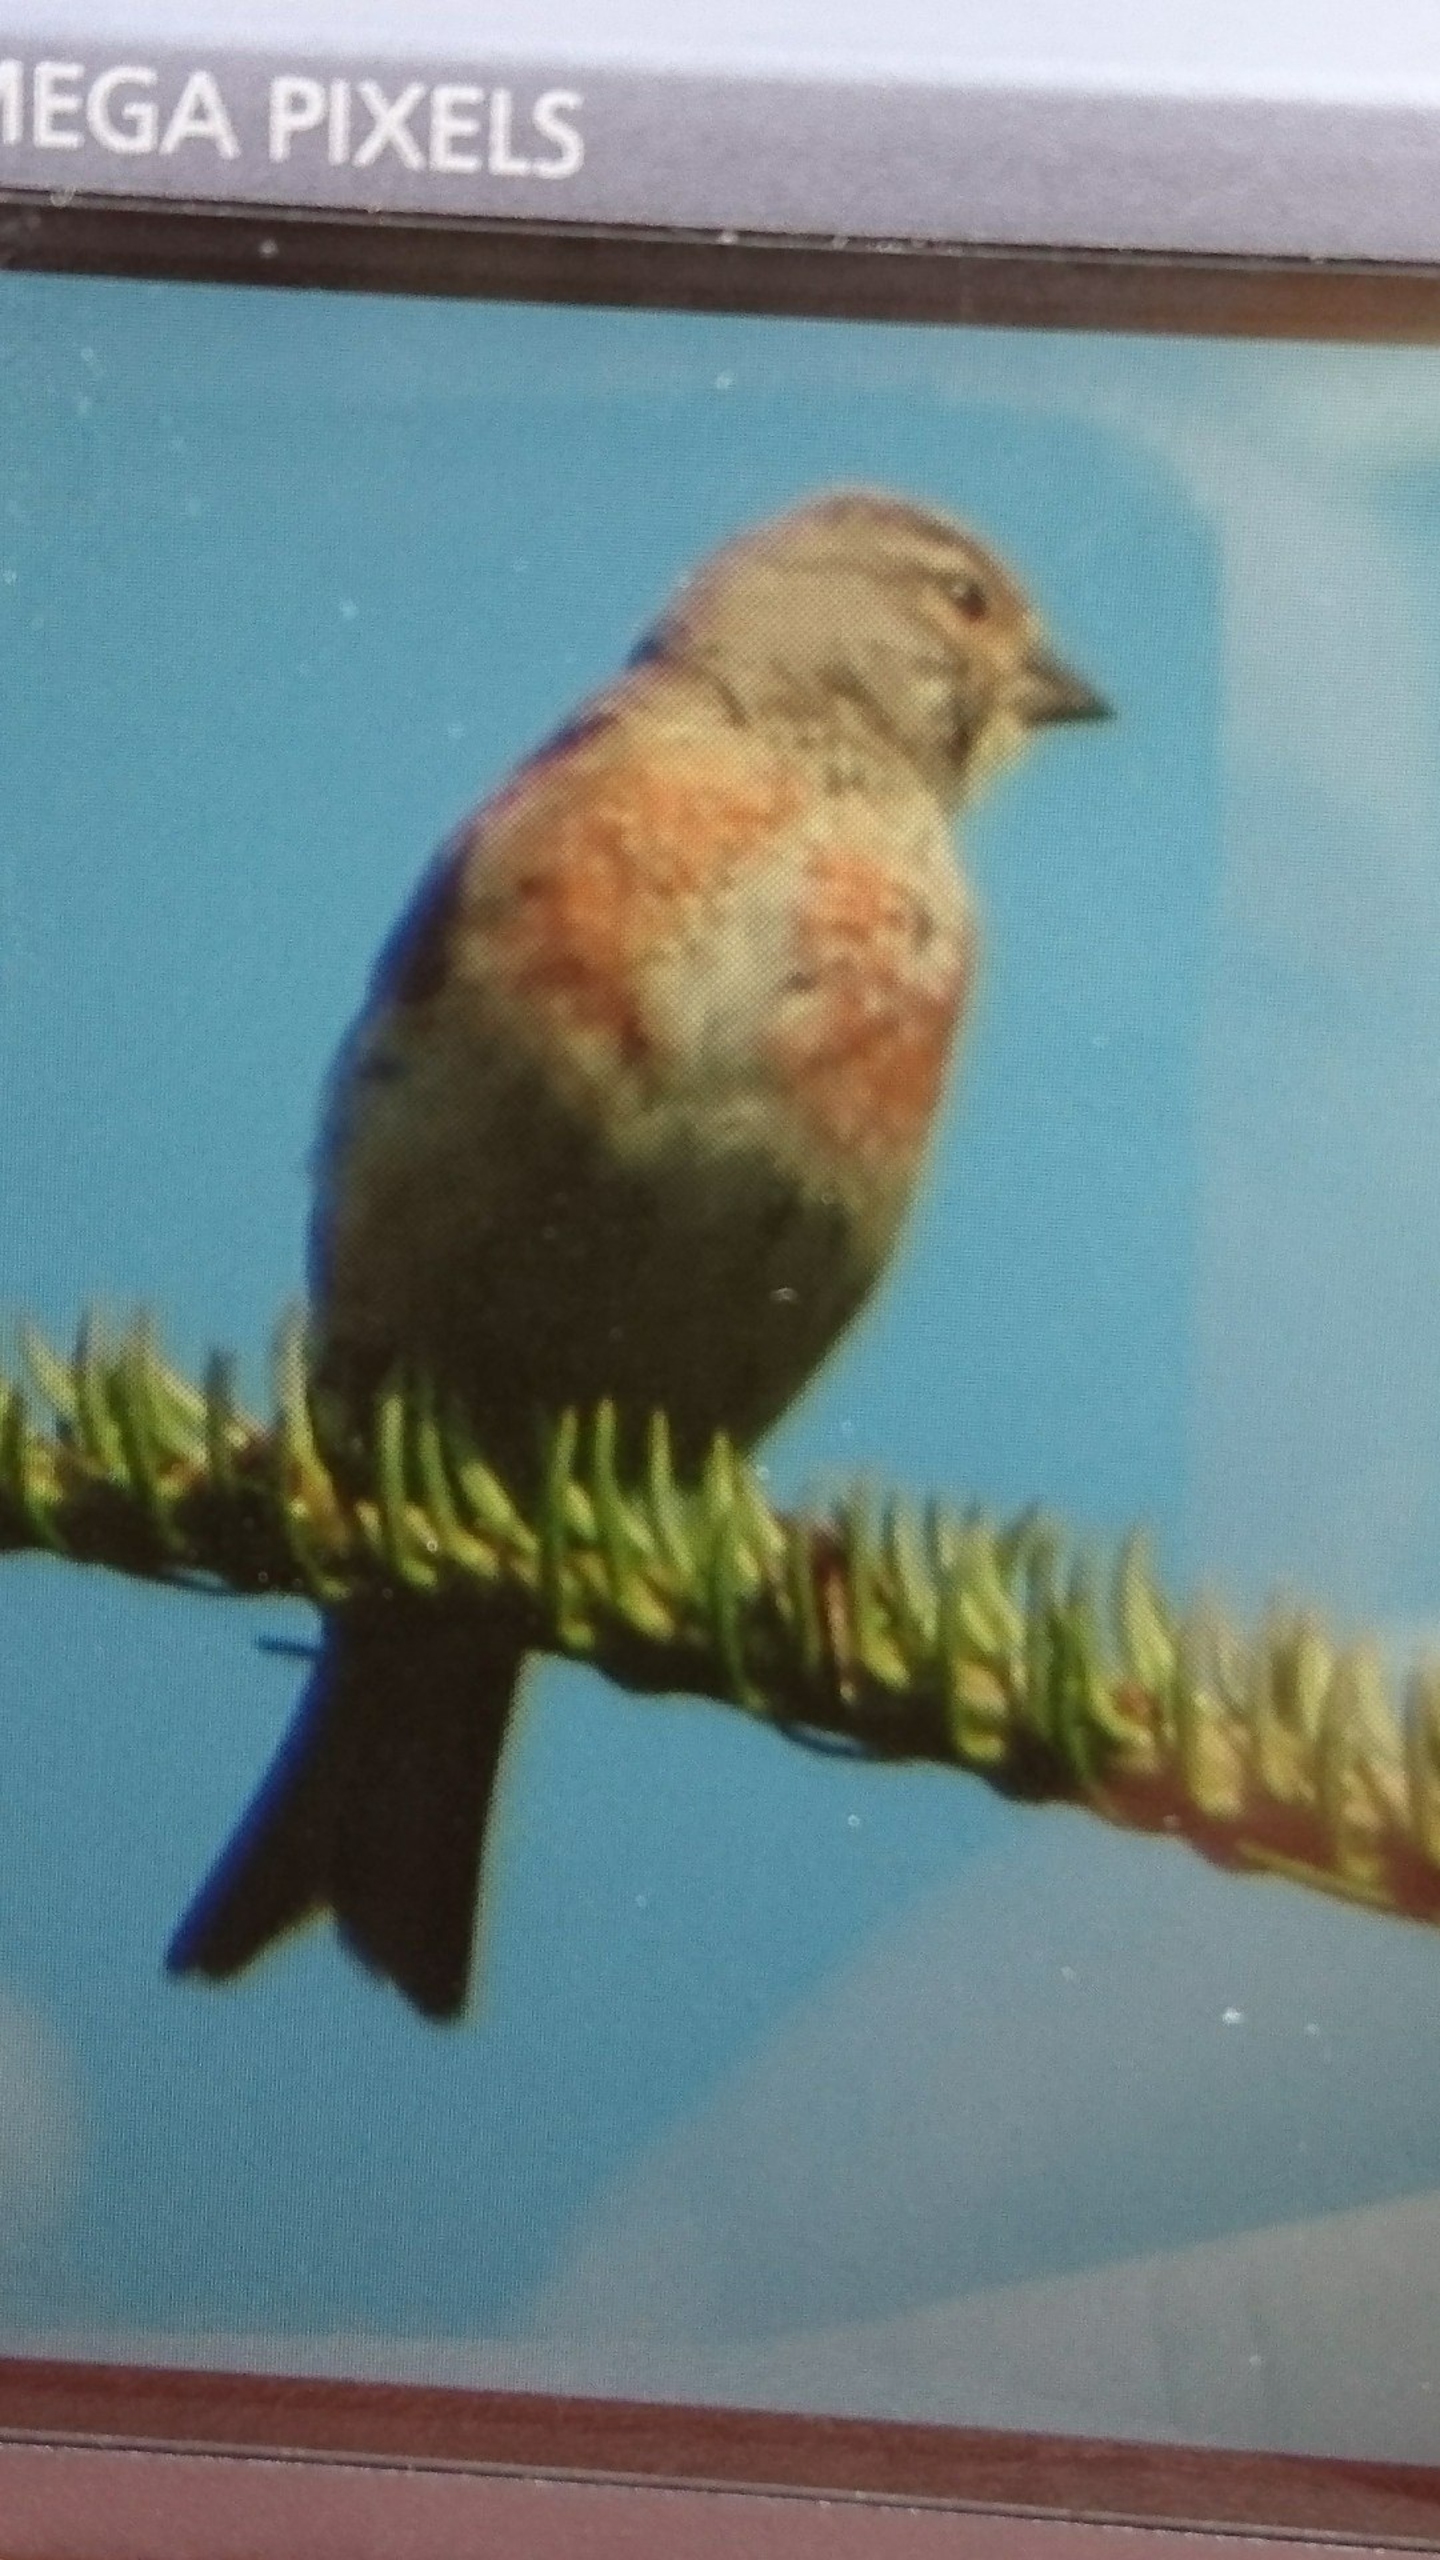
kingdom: Animalia
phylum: Chordata
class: Aves
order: Passeriformes
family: Fringillidae
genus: Linaria
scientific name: Linaria cannabina
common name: Tornirisk
